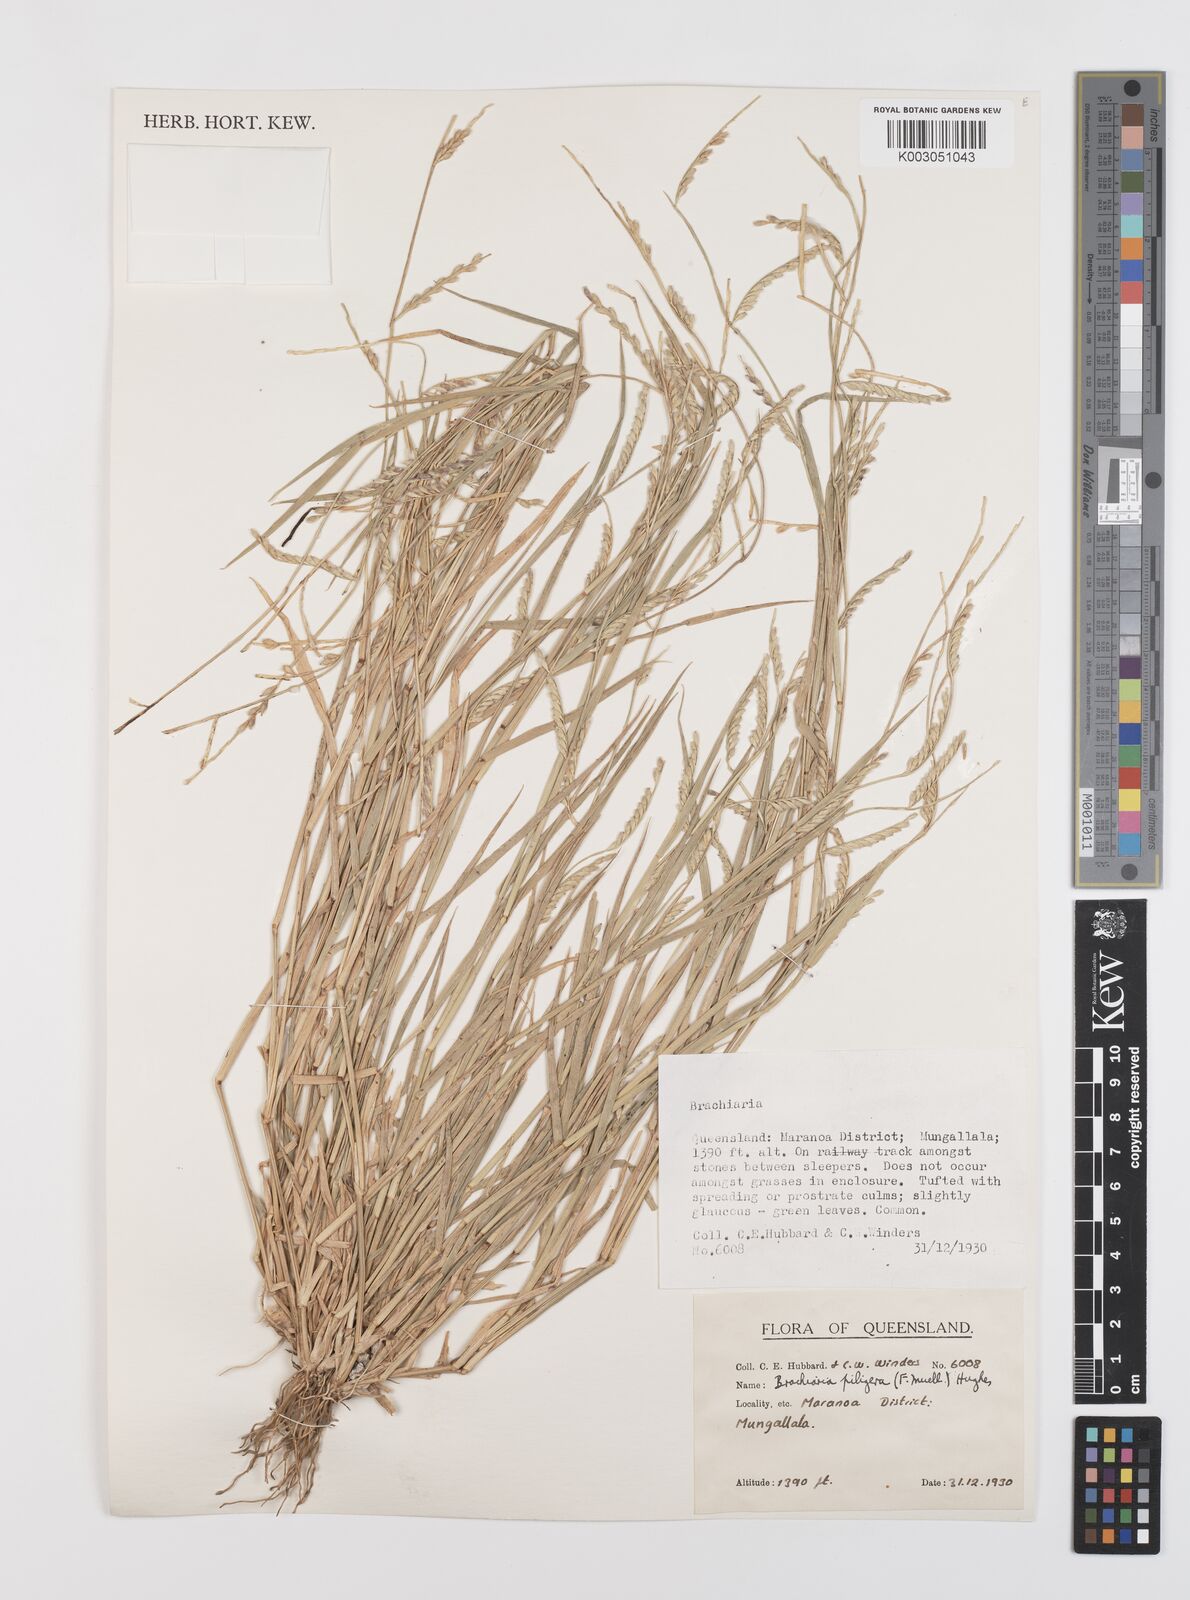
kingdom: Plantae
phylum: Tracheophyta
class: Liliopsida
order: Poales
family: Poaceae
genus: Urochloa
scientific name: Urochloa piligera
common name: Wattle signalgrass
